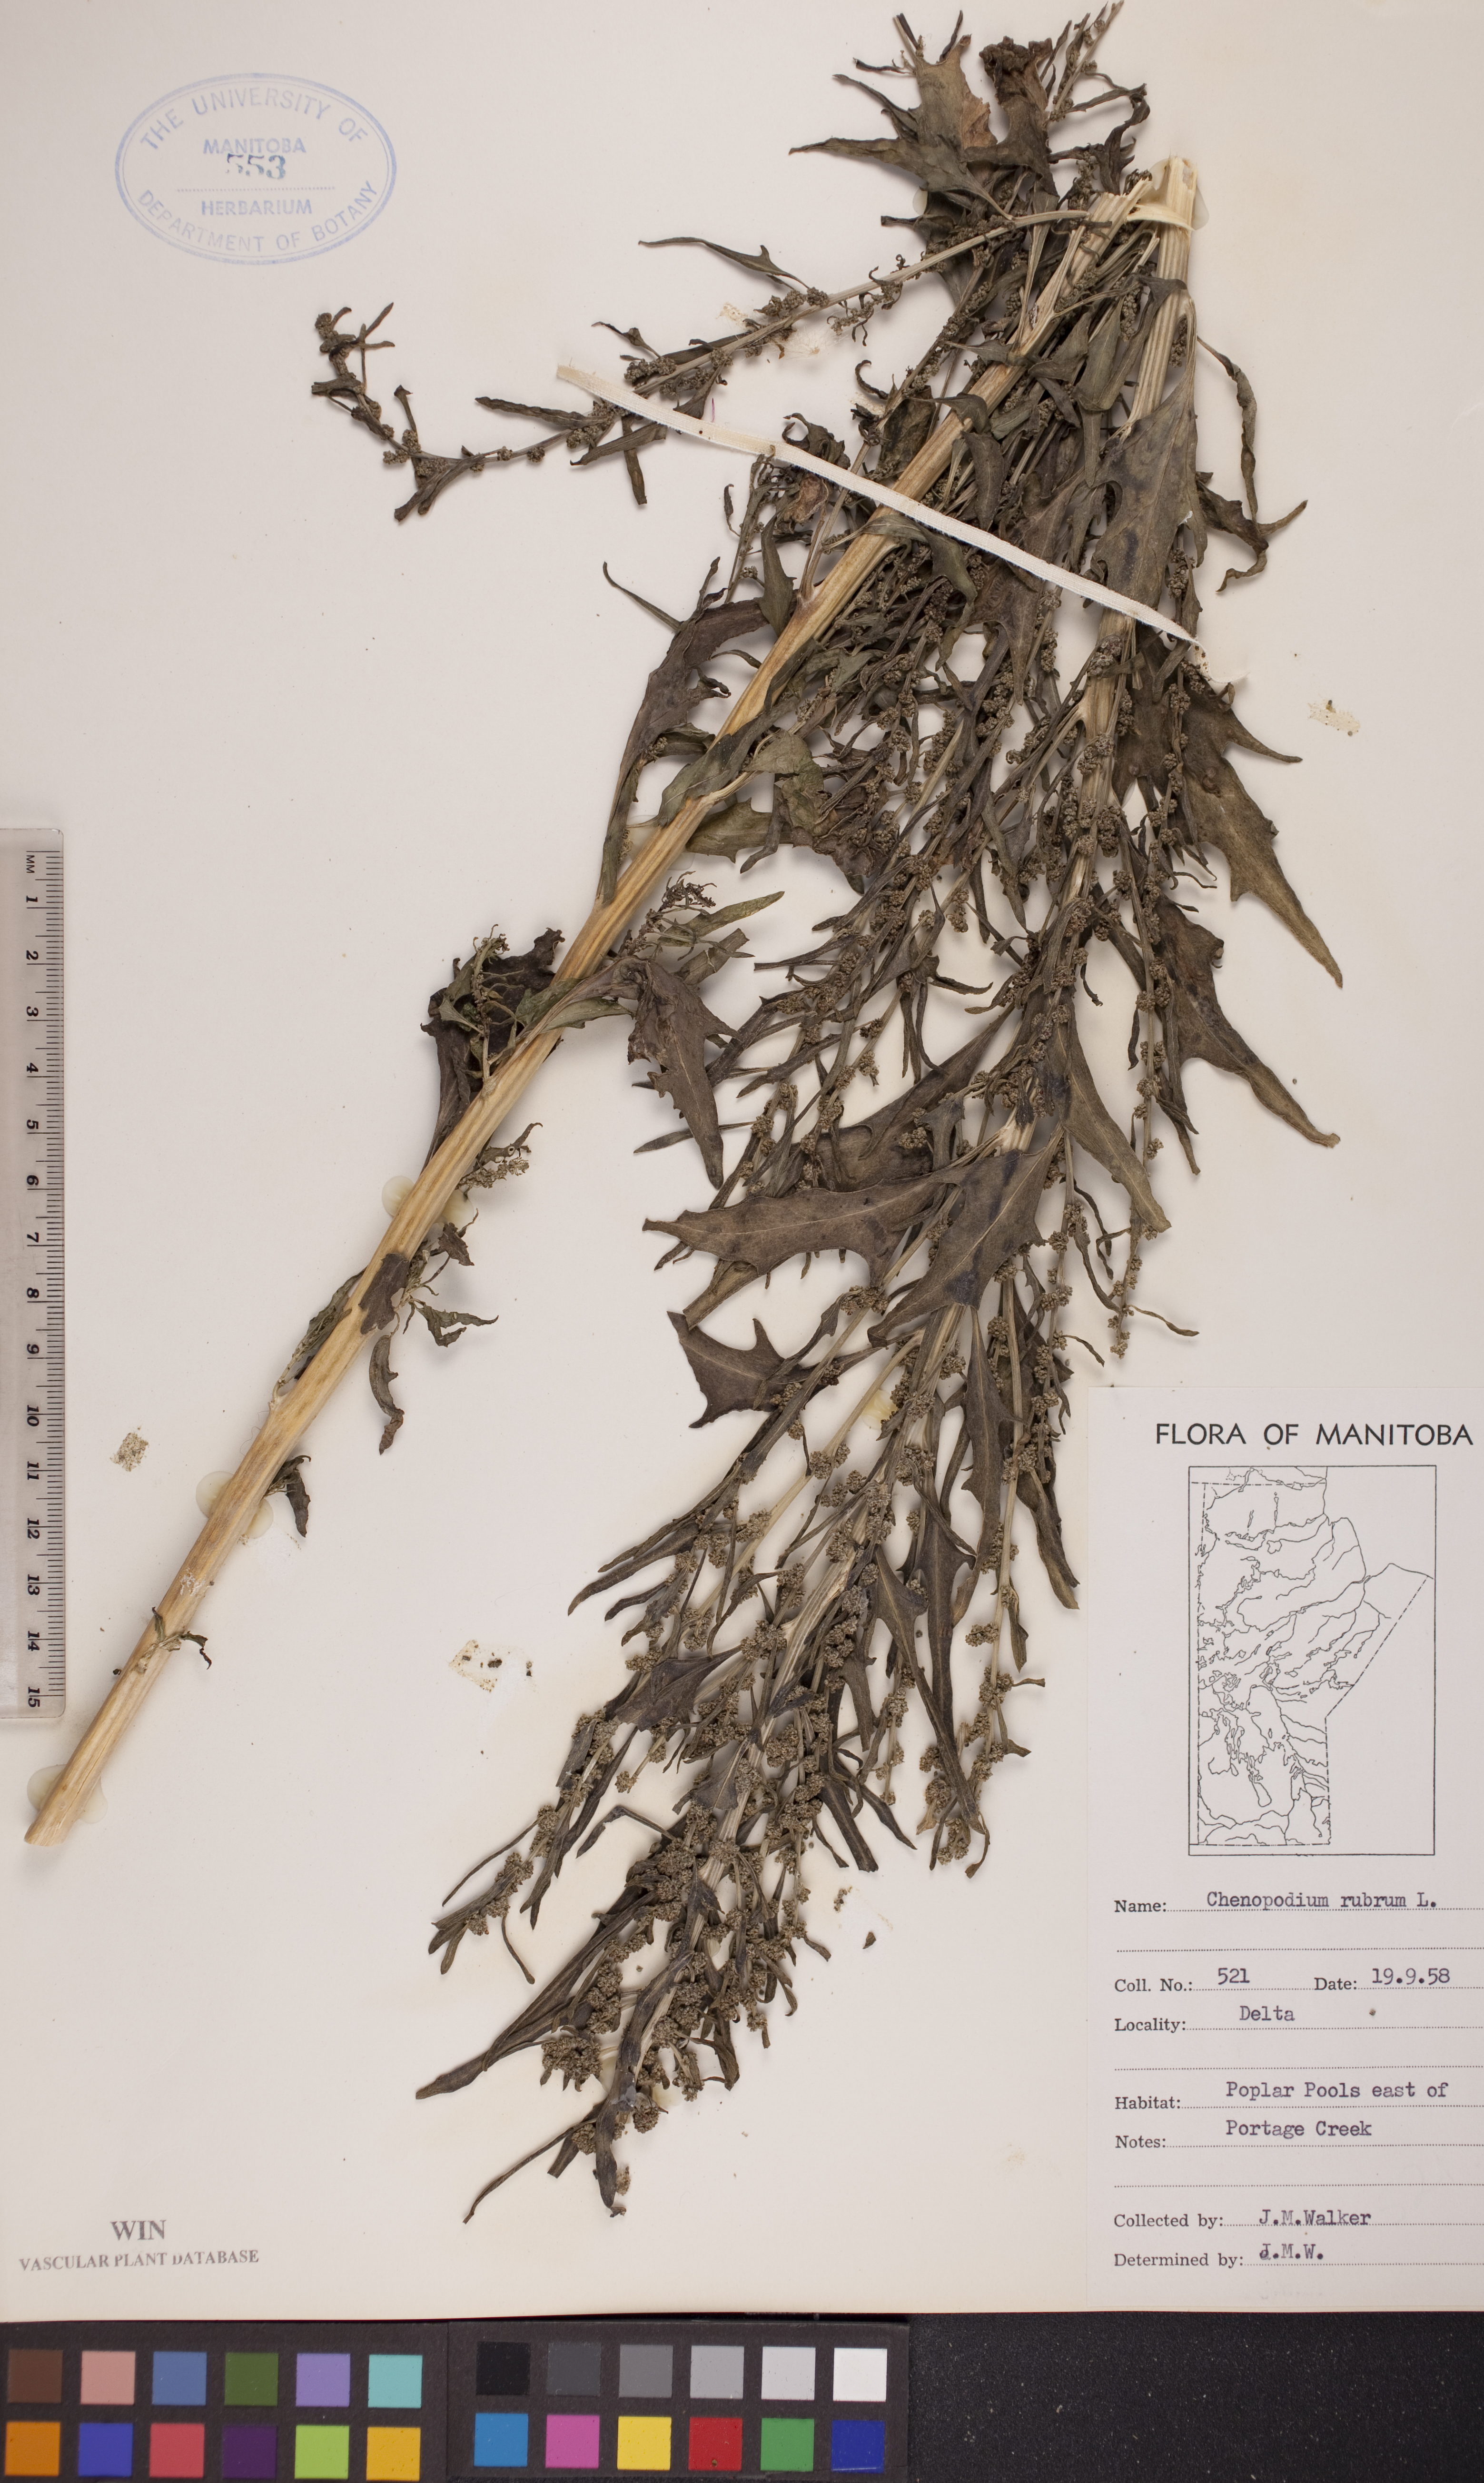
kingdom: Plantae
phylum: Tracheophyta
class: Magnoliopsida
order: Caryophyllales
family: Amaranthaceae
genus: Oxybasis
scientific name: Oxybasis rubra
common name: Red goosefoot
